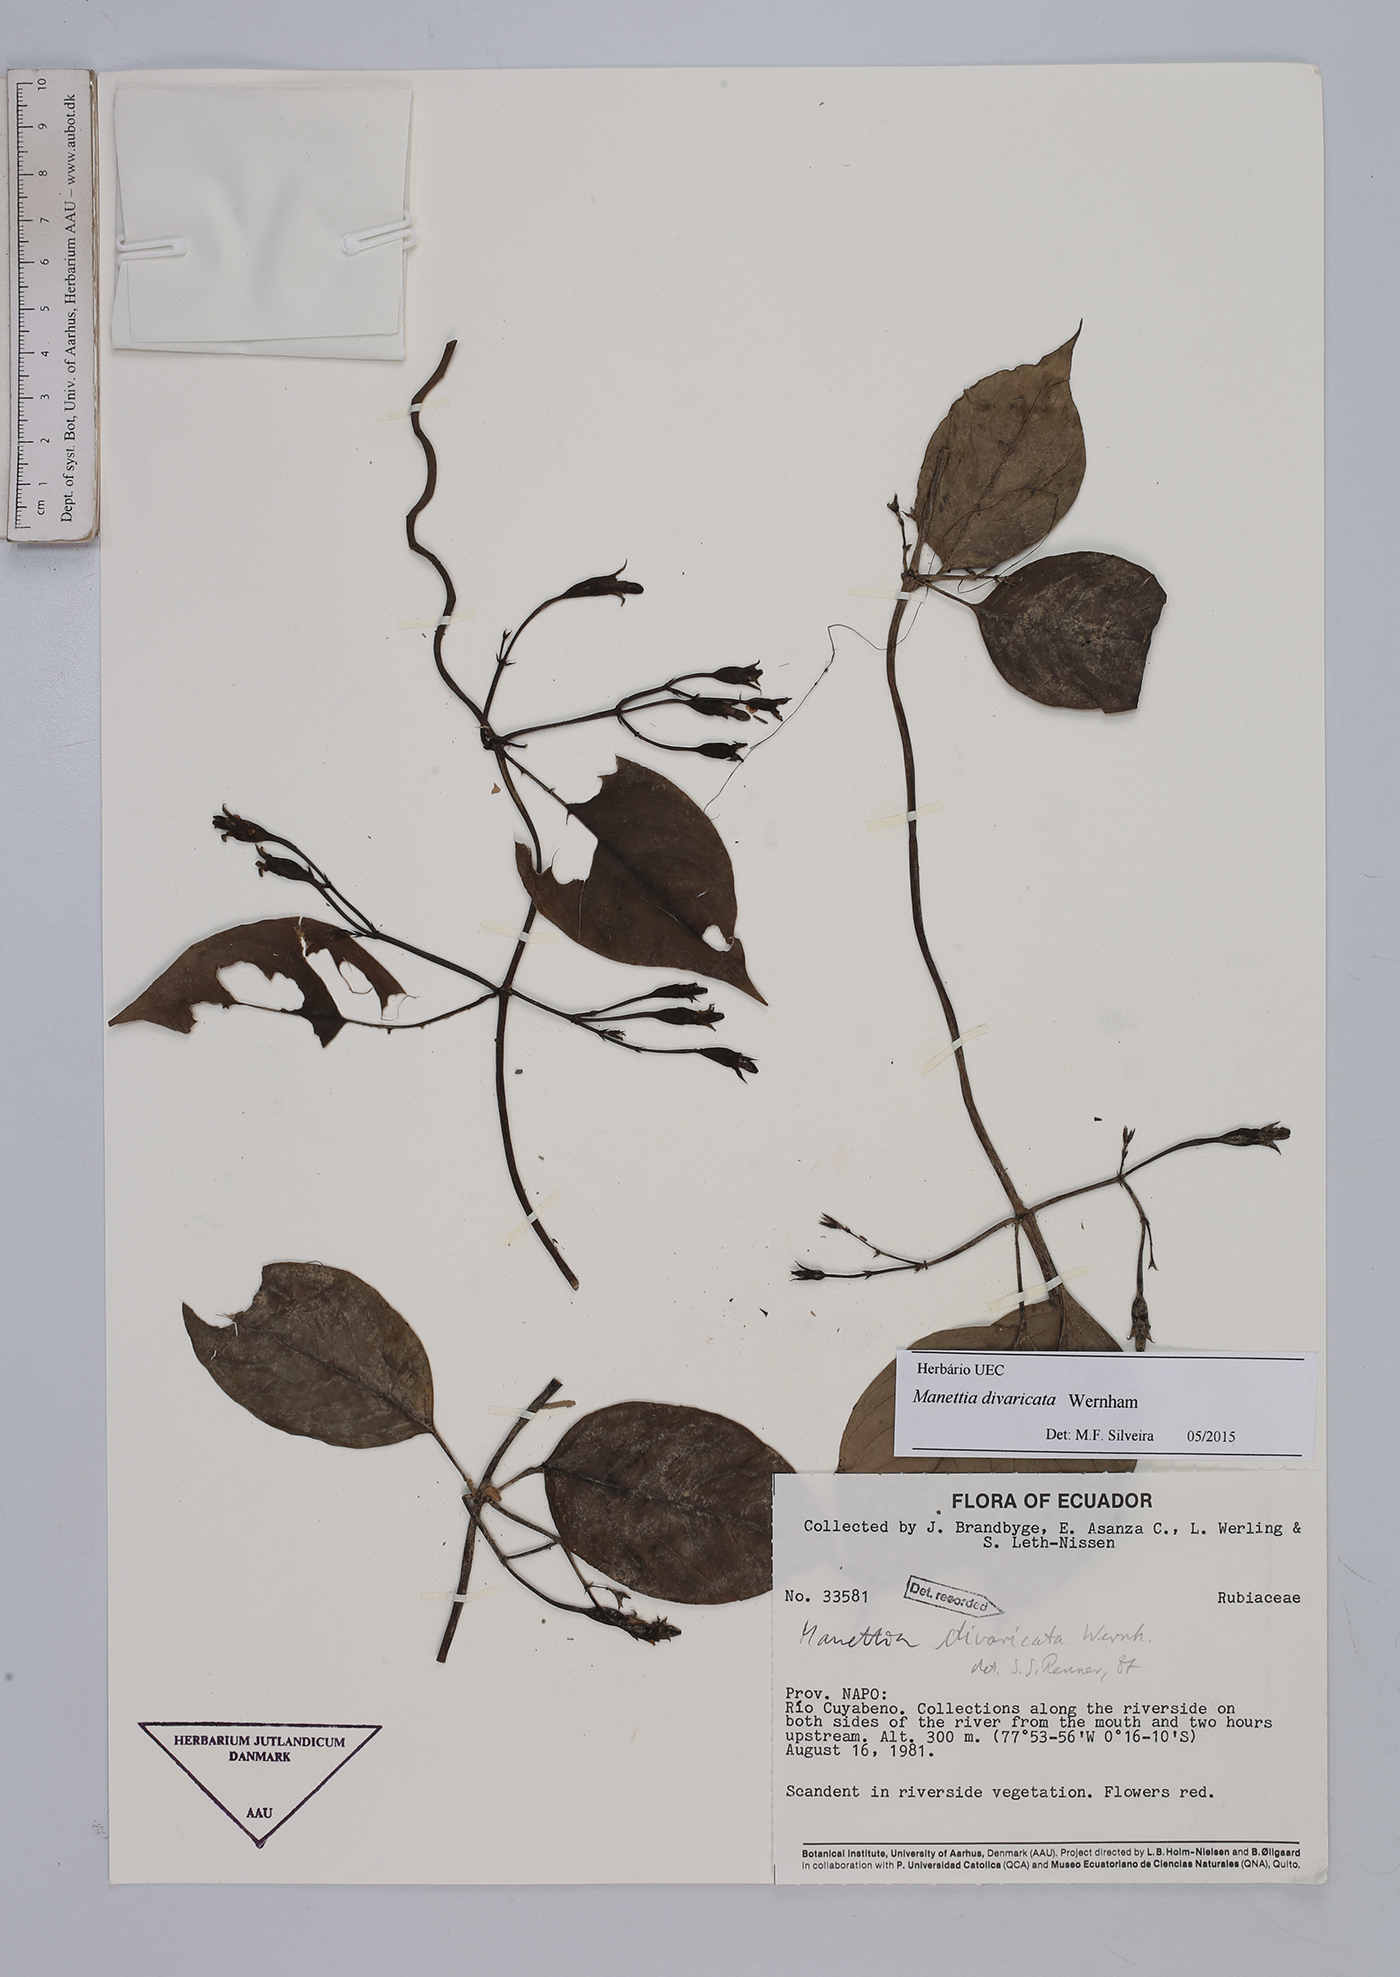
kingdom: Plantae
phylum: Tracheophyta
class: Magnoliopsida
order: Gentianales
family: Rubiaceae
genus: Manettia
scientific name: Manettia divaricata
